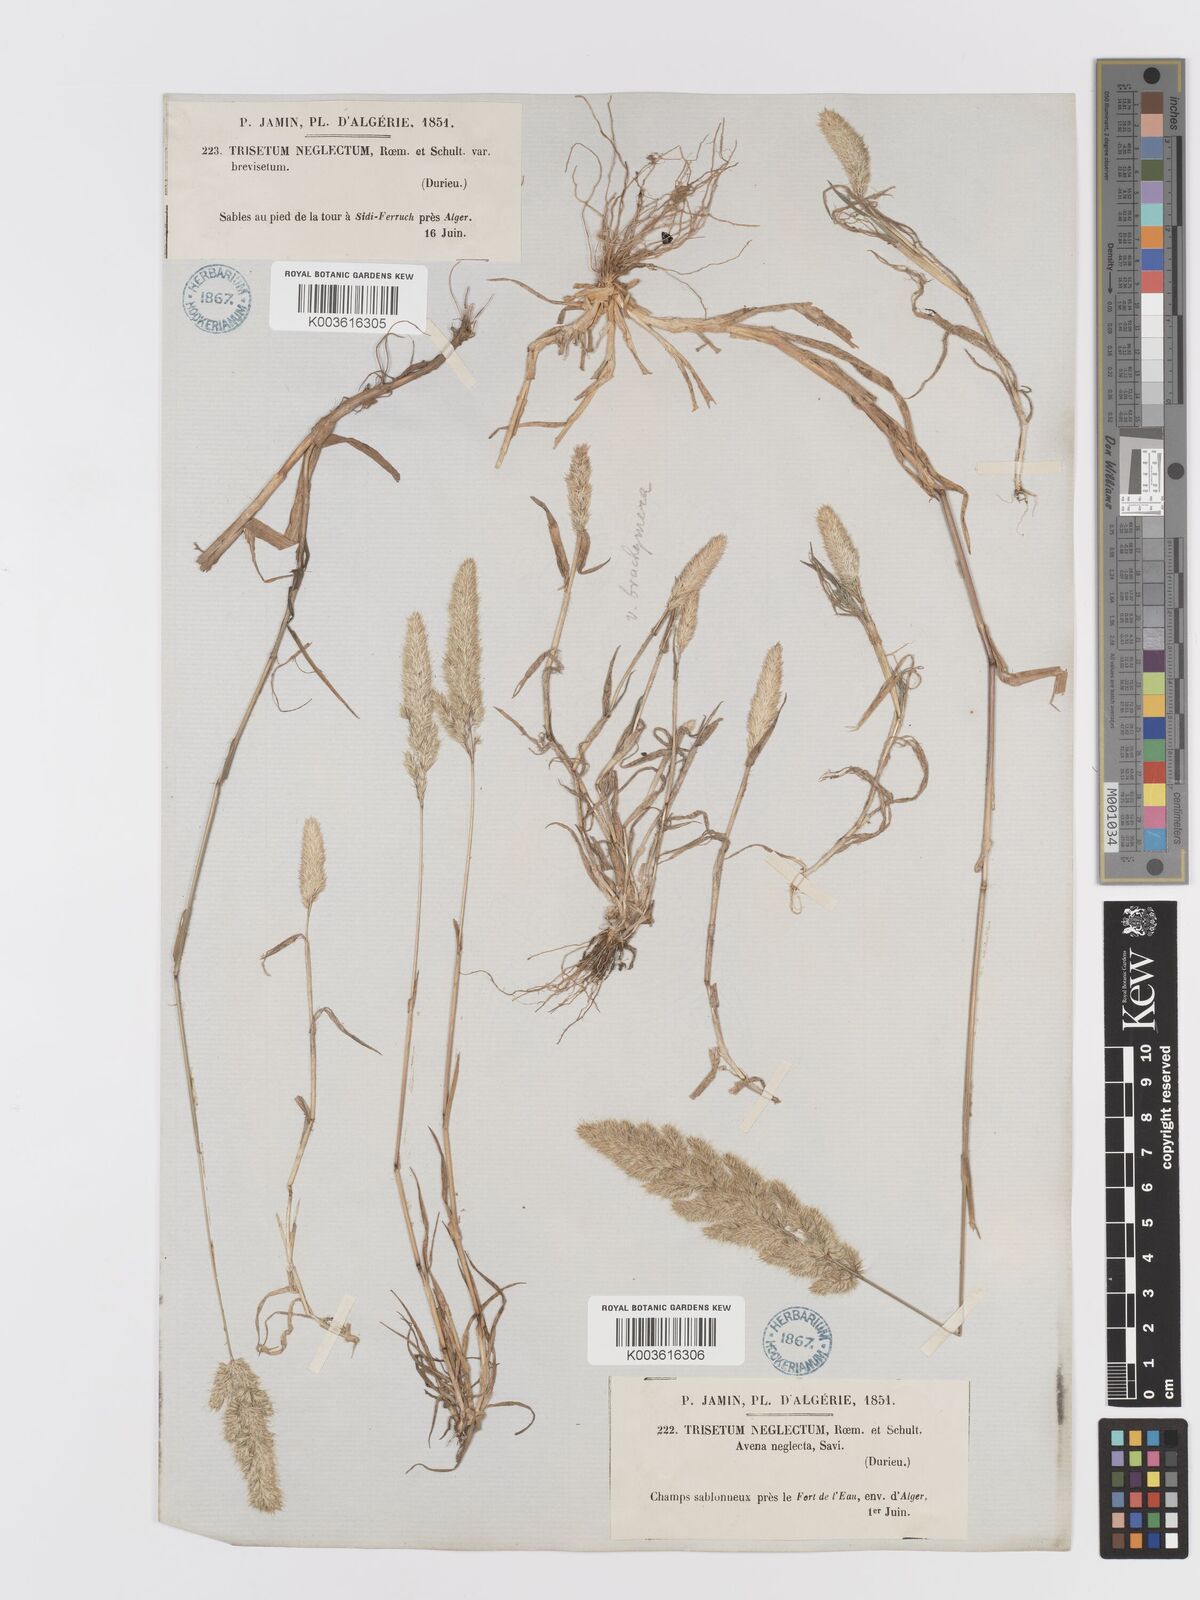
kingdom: Plantae
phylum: Tracheophyta
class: Liliopsida
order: Poales
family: Poaceae
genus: Trisetaria
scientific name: Trisetaria panicea
